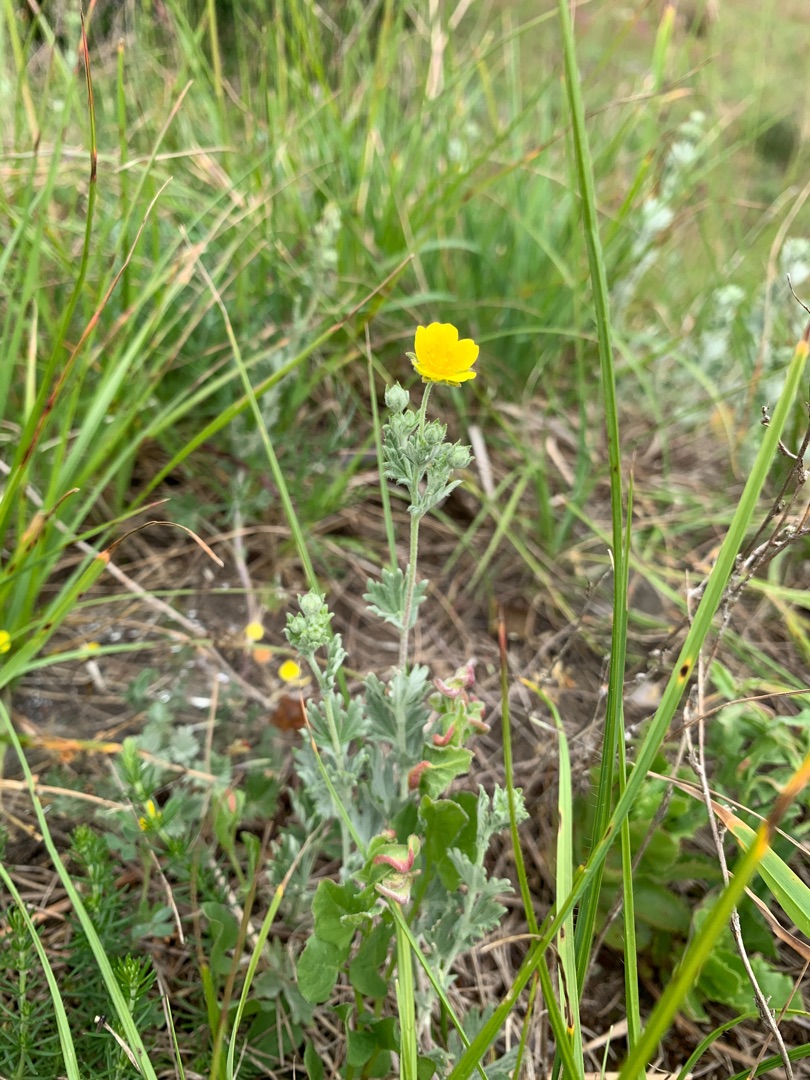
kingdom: Plantae
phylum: Tracheophyta
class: Magnoliopsida
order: Rosales
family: Rosaceae
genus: Potentilla
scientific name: Potentilla inclinata
